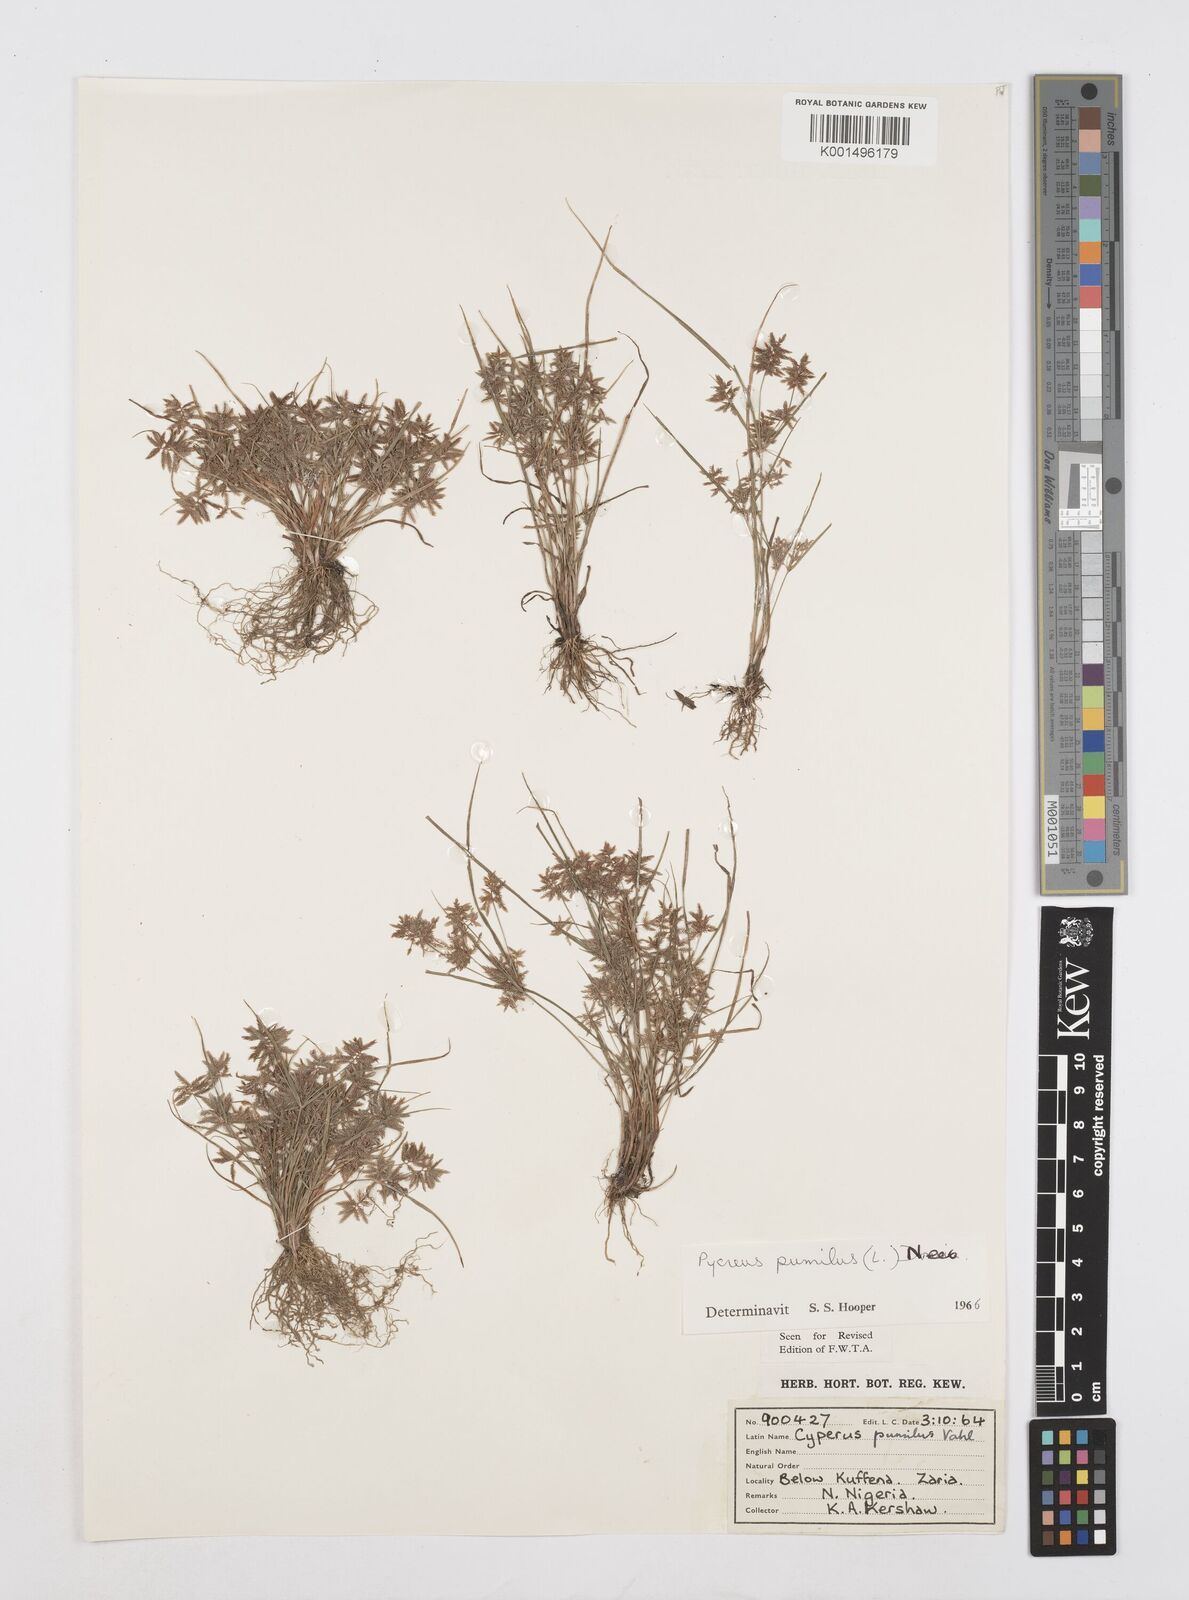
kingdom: Plantae
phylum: Tracheophyta
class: Liliopsida
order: Poales
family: Cyperaceae
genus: Cyperus
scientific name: Cyperus pumilus
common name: Low flatsedge
